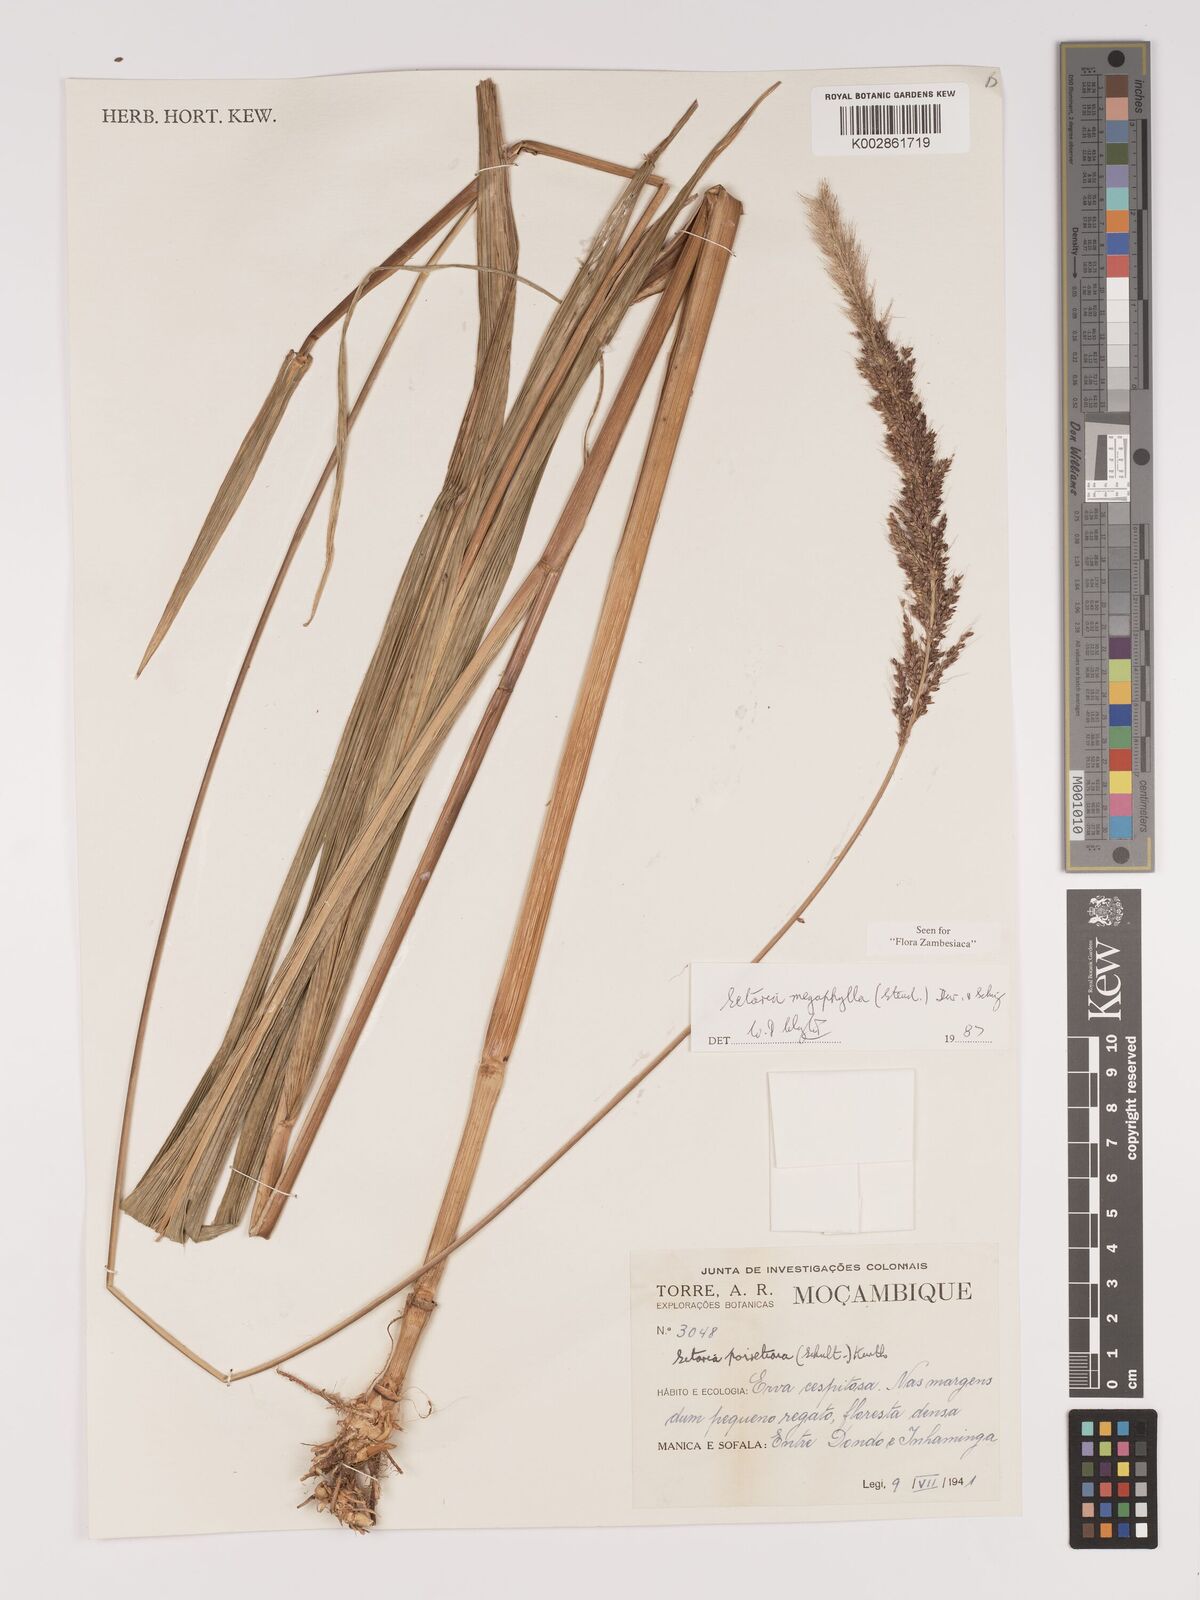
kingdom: Plantae
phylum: Tracheophyta
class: Liliopsida
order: Poales
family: Poaceae
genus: Setaria
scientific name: Setaria megaphylla
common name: Bigleaf bristlegrass
